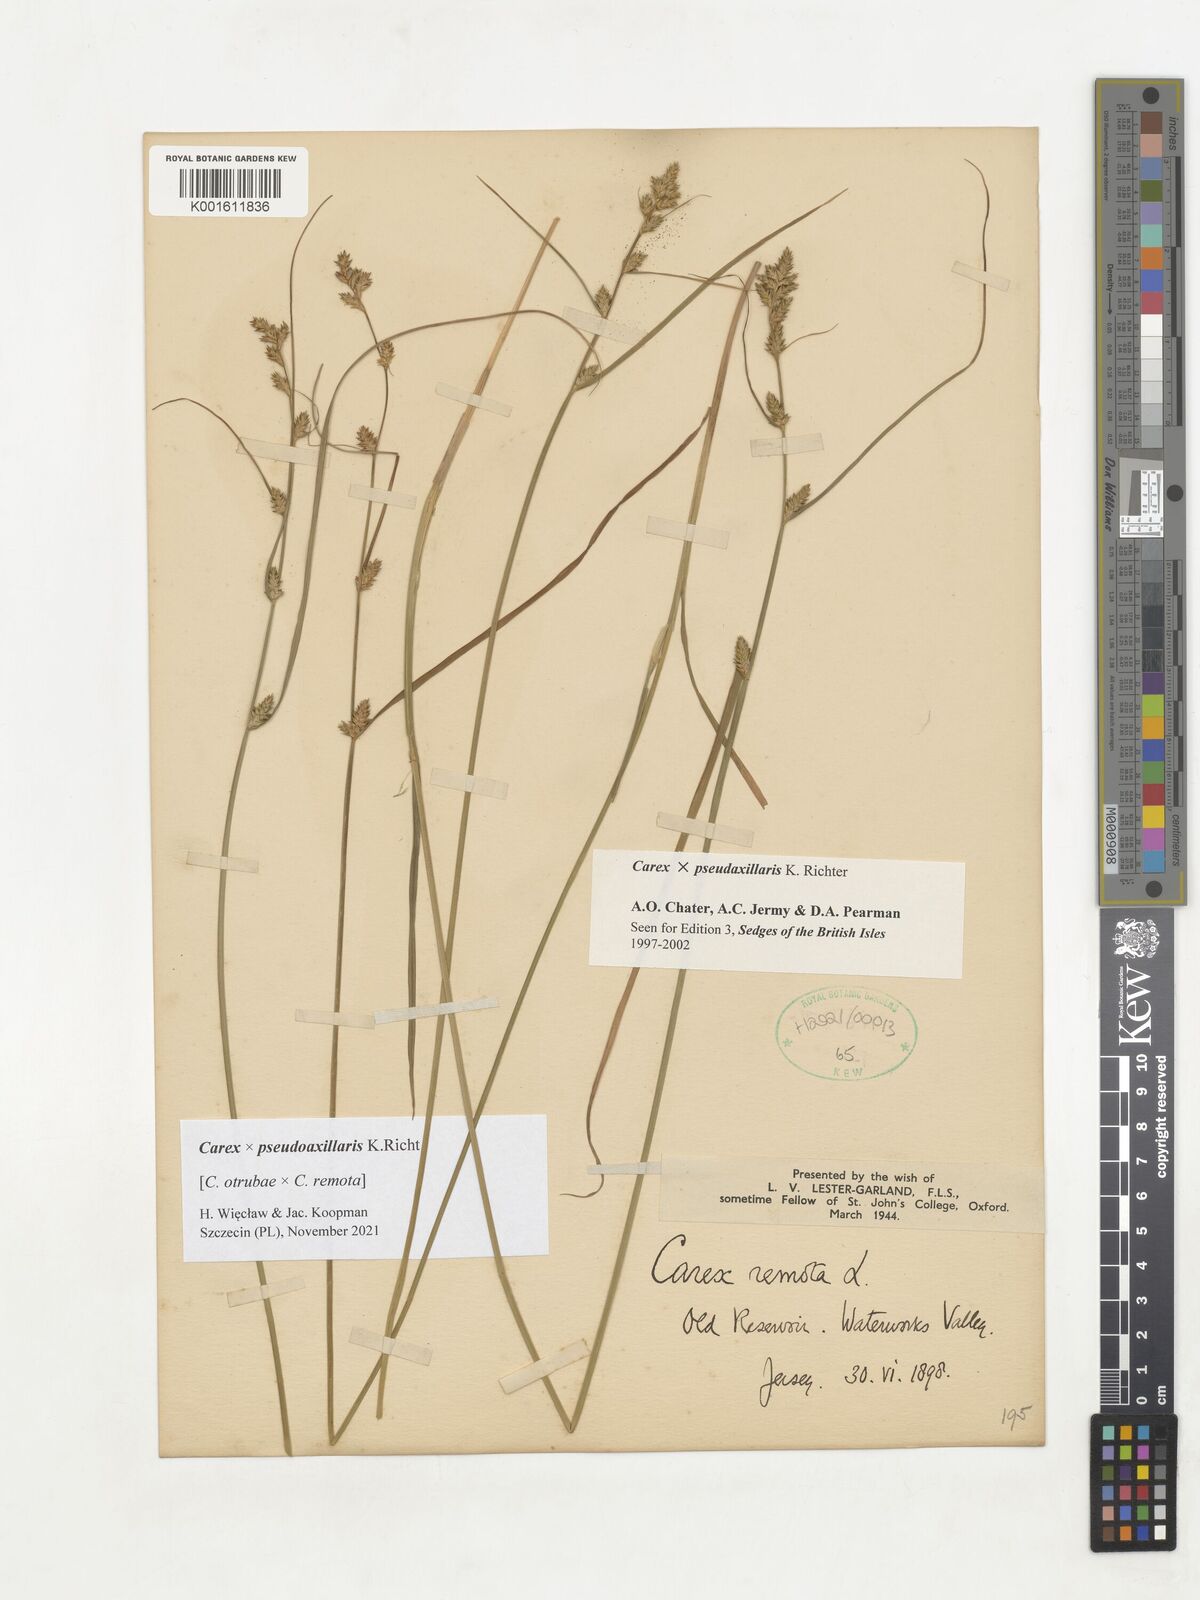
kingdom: Plantae
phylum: Tracheophyta
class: Liliopsida
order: Poales
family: Cyperaceae
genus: Carex
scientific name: Carex pseudoaxillaris
